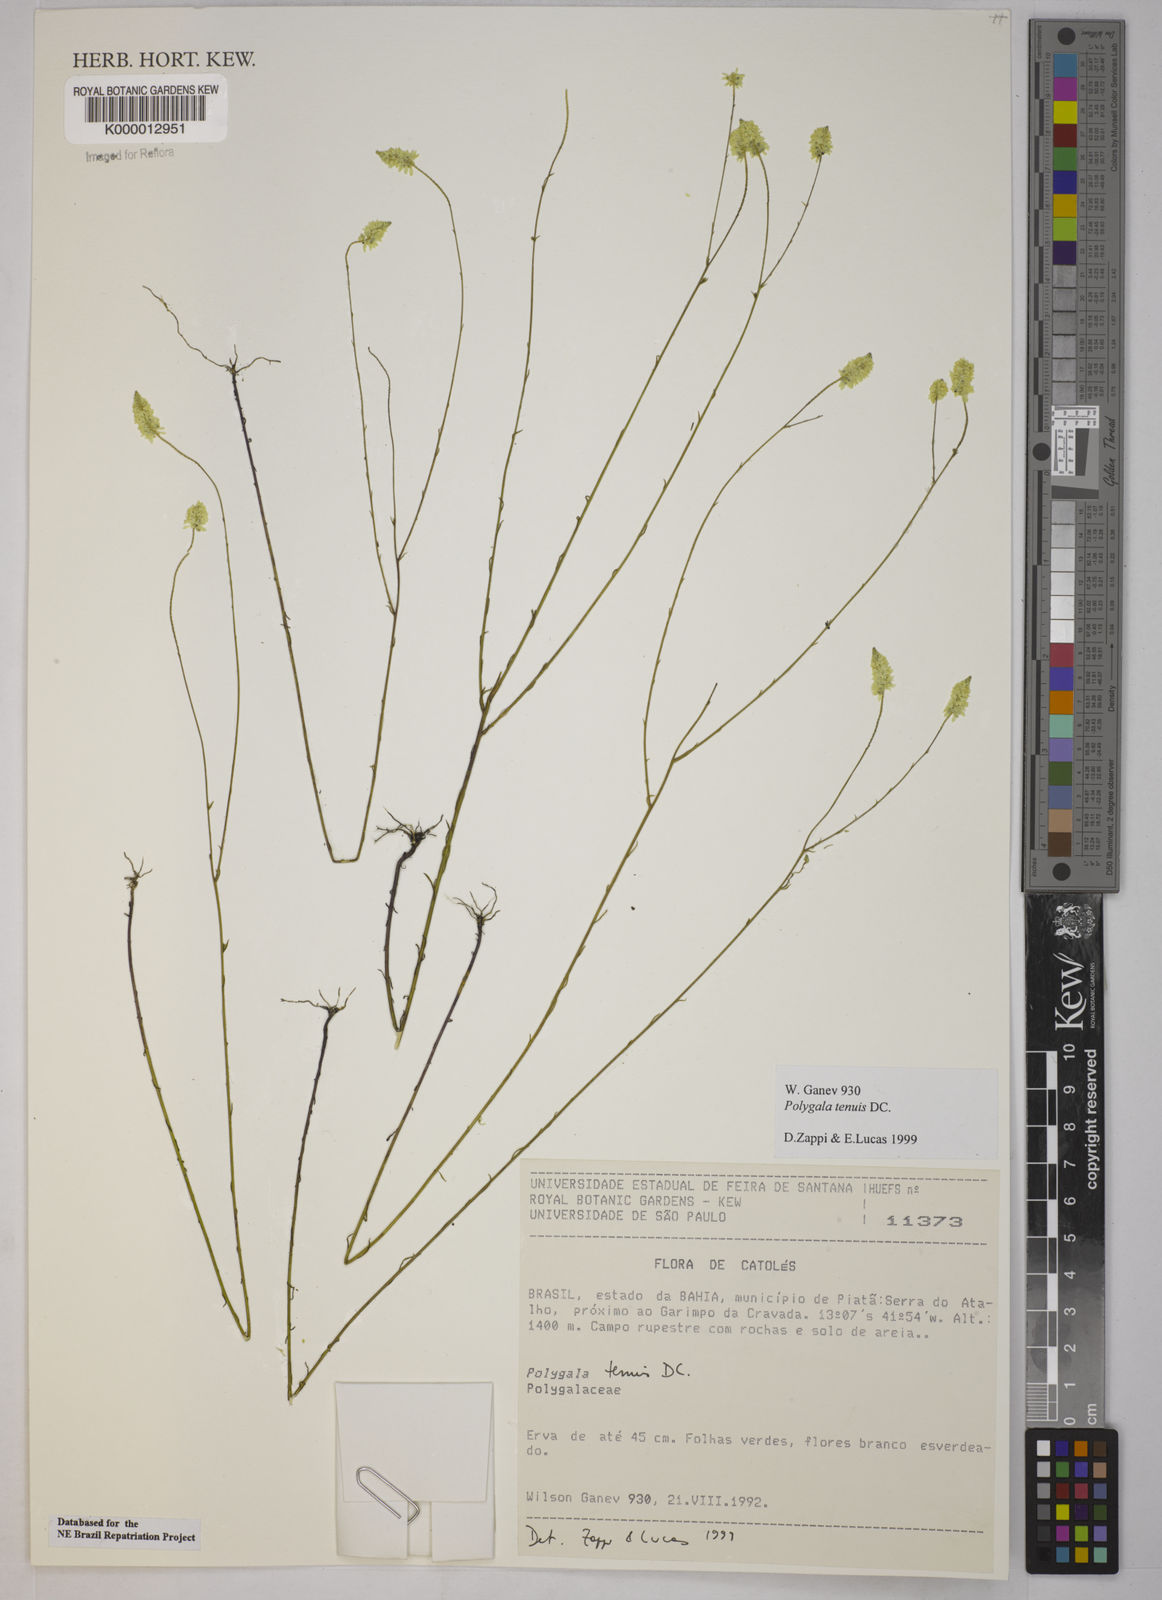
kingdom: Plantae
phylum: Tracheophyta
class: Magnoliopsida
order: Fabales
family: Polygalaceae
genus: Polygala
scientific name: Polygala tenuis
